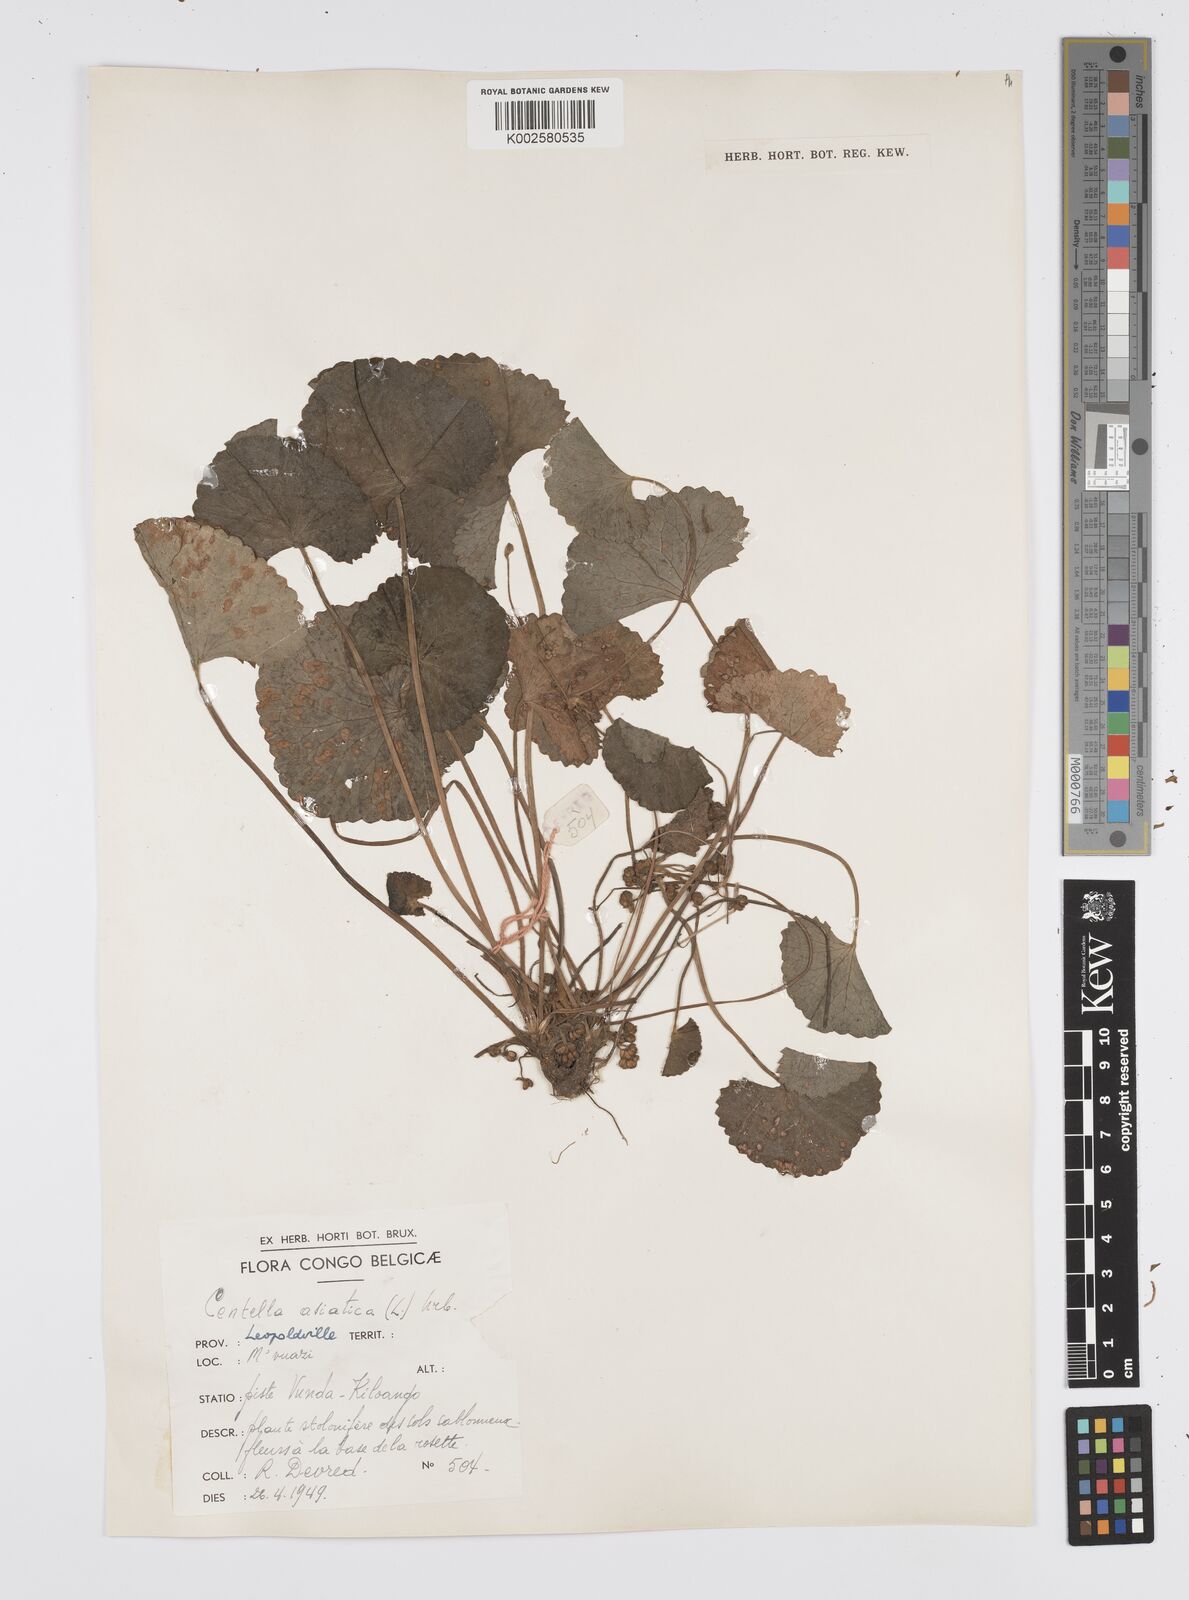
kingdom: Plantae
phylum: Tracheophyta
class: Magnoliopsida
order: Apiales
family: Apiaceae
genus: Centella
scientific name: Centella asiatica
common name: Spadeleaf
